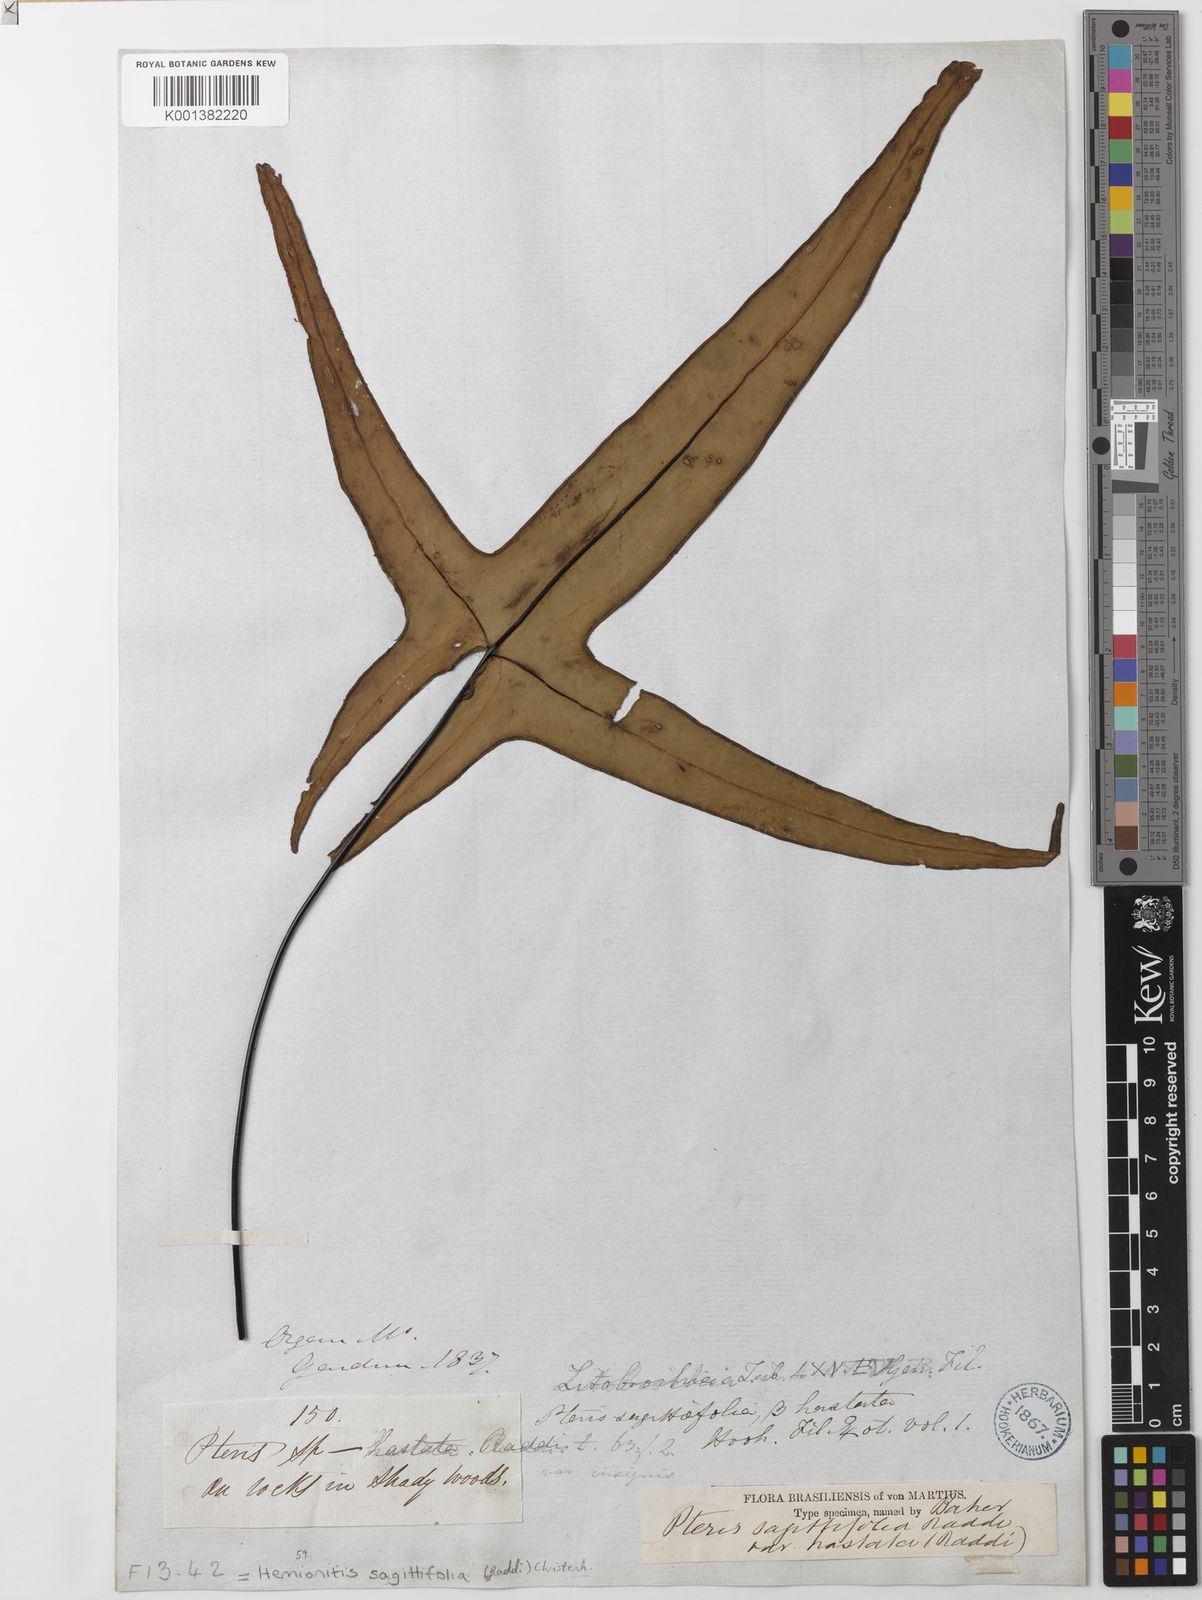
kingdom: Plantae
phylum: Tracheophyta
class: Polypodiopsida
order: Polypodiales
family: Pteridaceae
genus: Doryopteris
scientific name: Doryopteris sagittifolia
